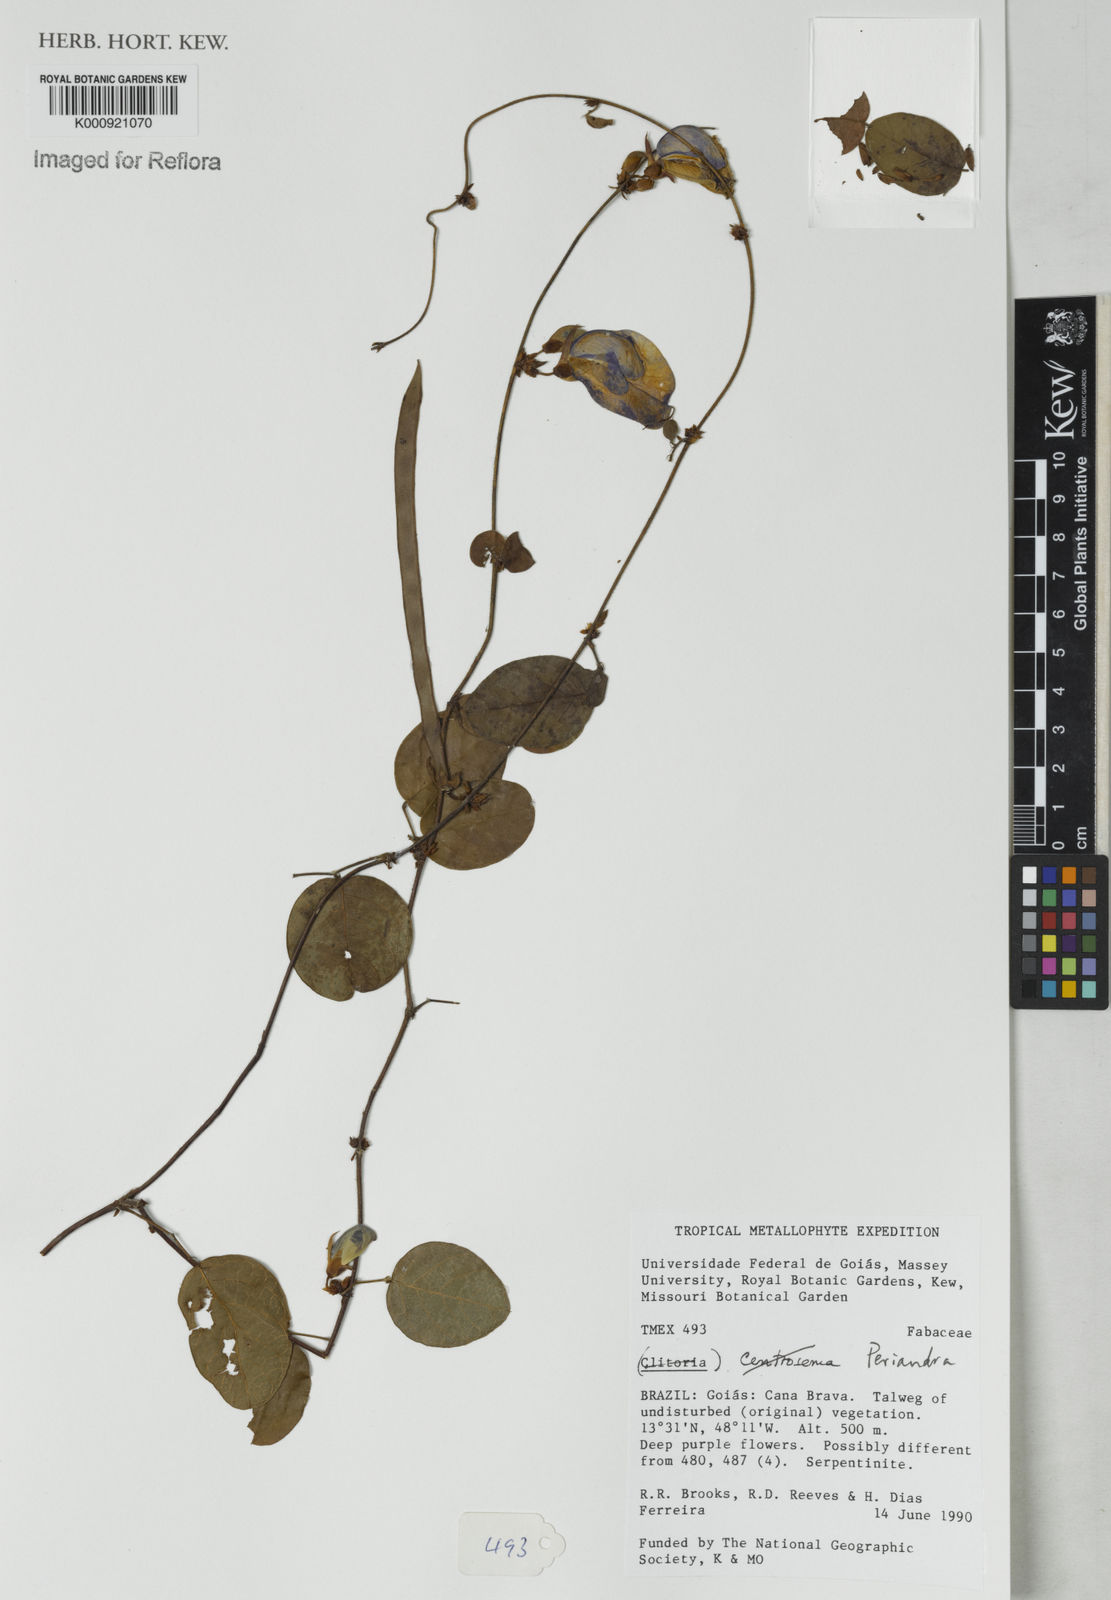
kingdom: Plantae
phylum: Tracheophyta
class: Magnoliopsida
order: Fabales
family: Fabaceae
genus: Periandra
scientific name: Periandra
